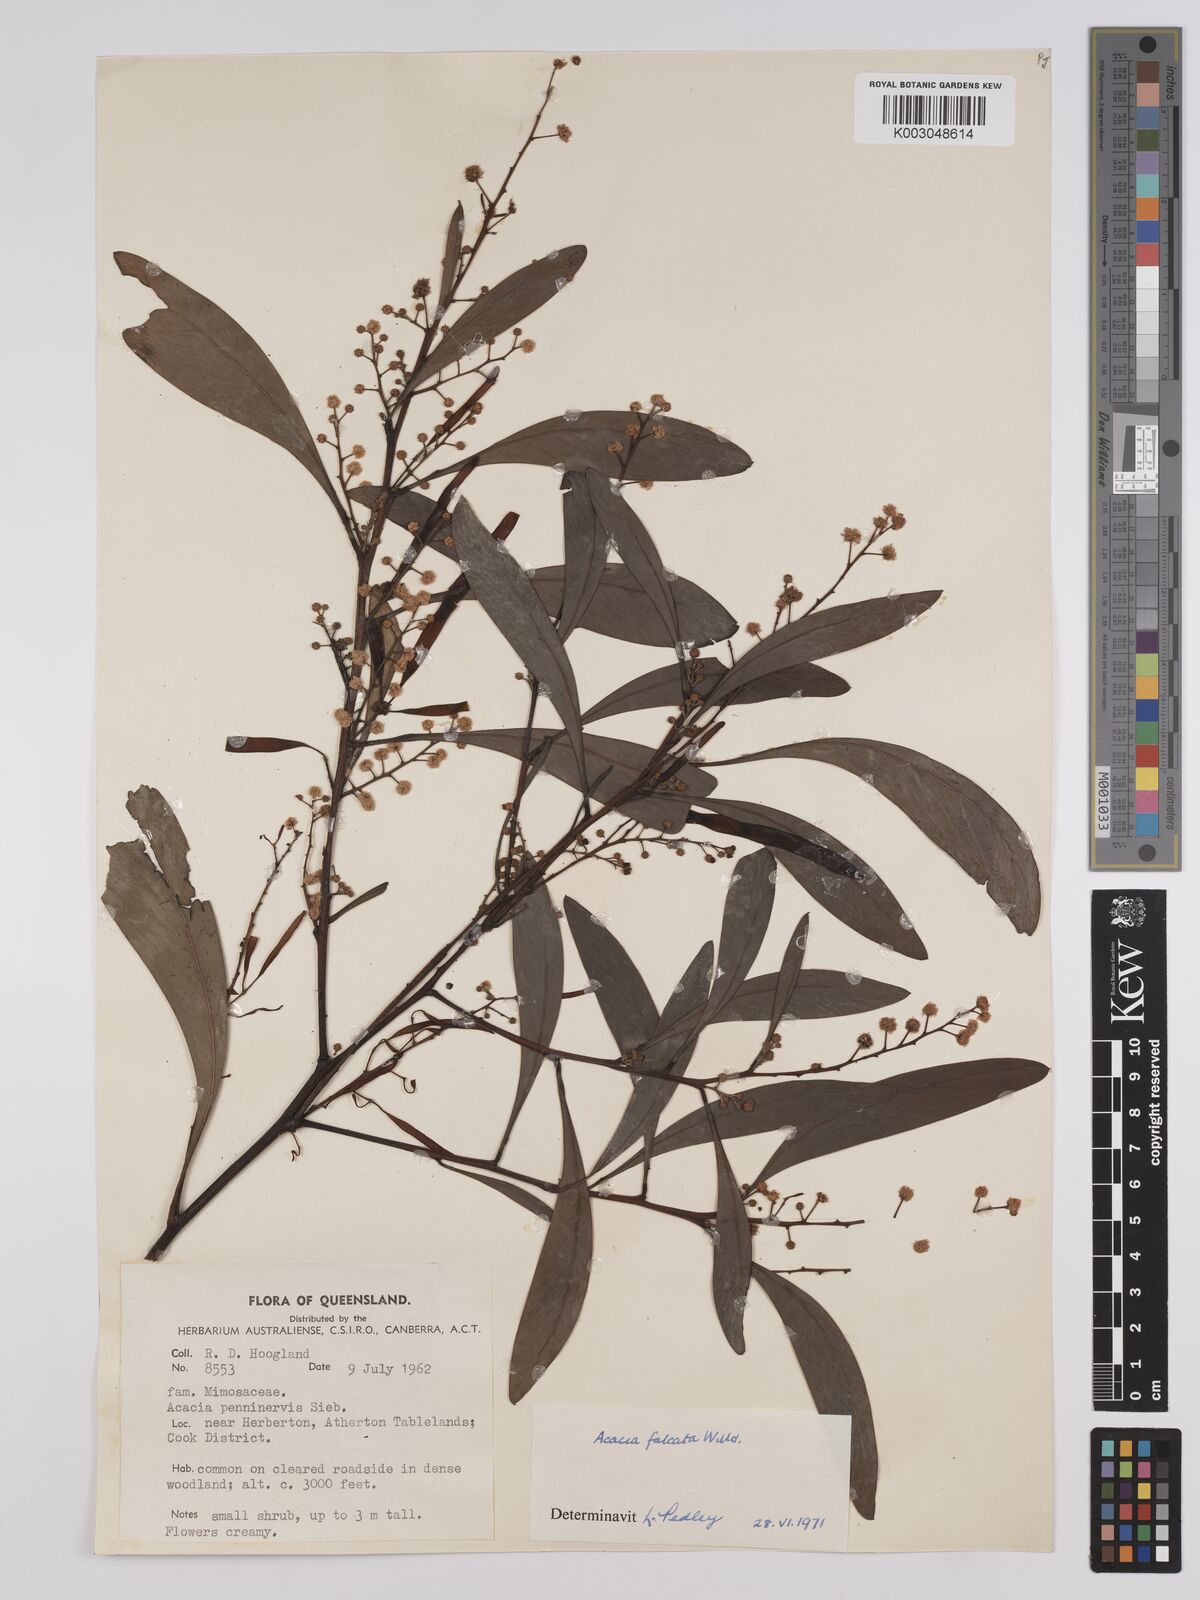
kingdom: Plantae
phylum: Tracheophyta
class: Magnoliopsida
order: Fabales
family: Fabaceae
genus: Acacia
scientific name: Acacia falcata
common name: Burra acacia
